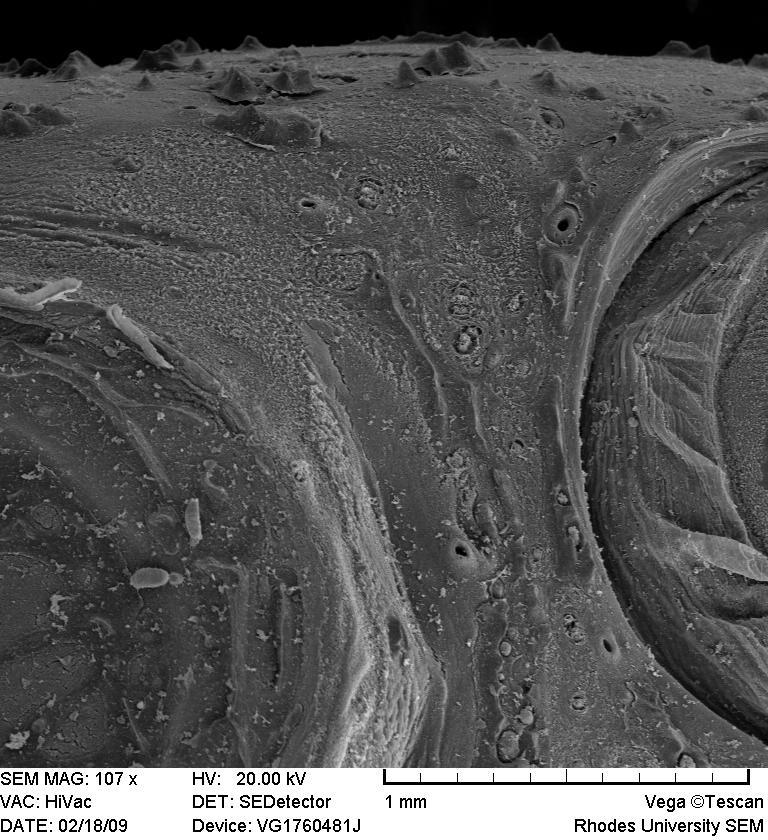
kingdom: Animalia
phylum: Chordata
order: Gonorynchiformes
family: Kneriidae
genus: Kneria
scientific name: Kneria auriculata
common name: Airbreathing shellear
